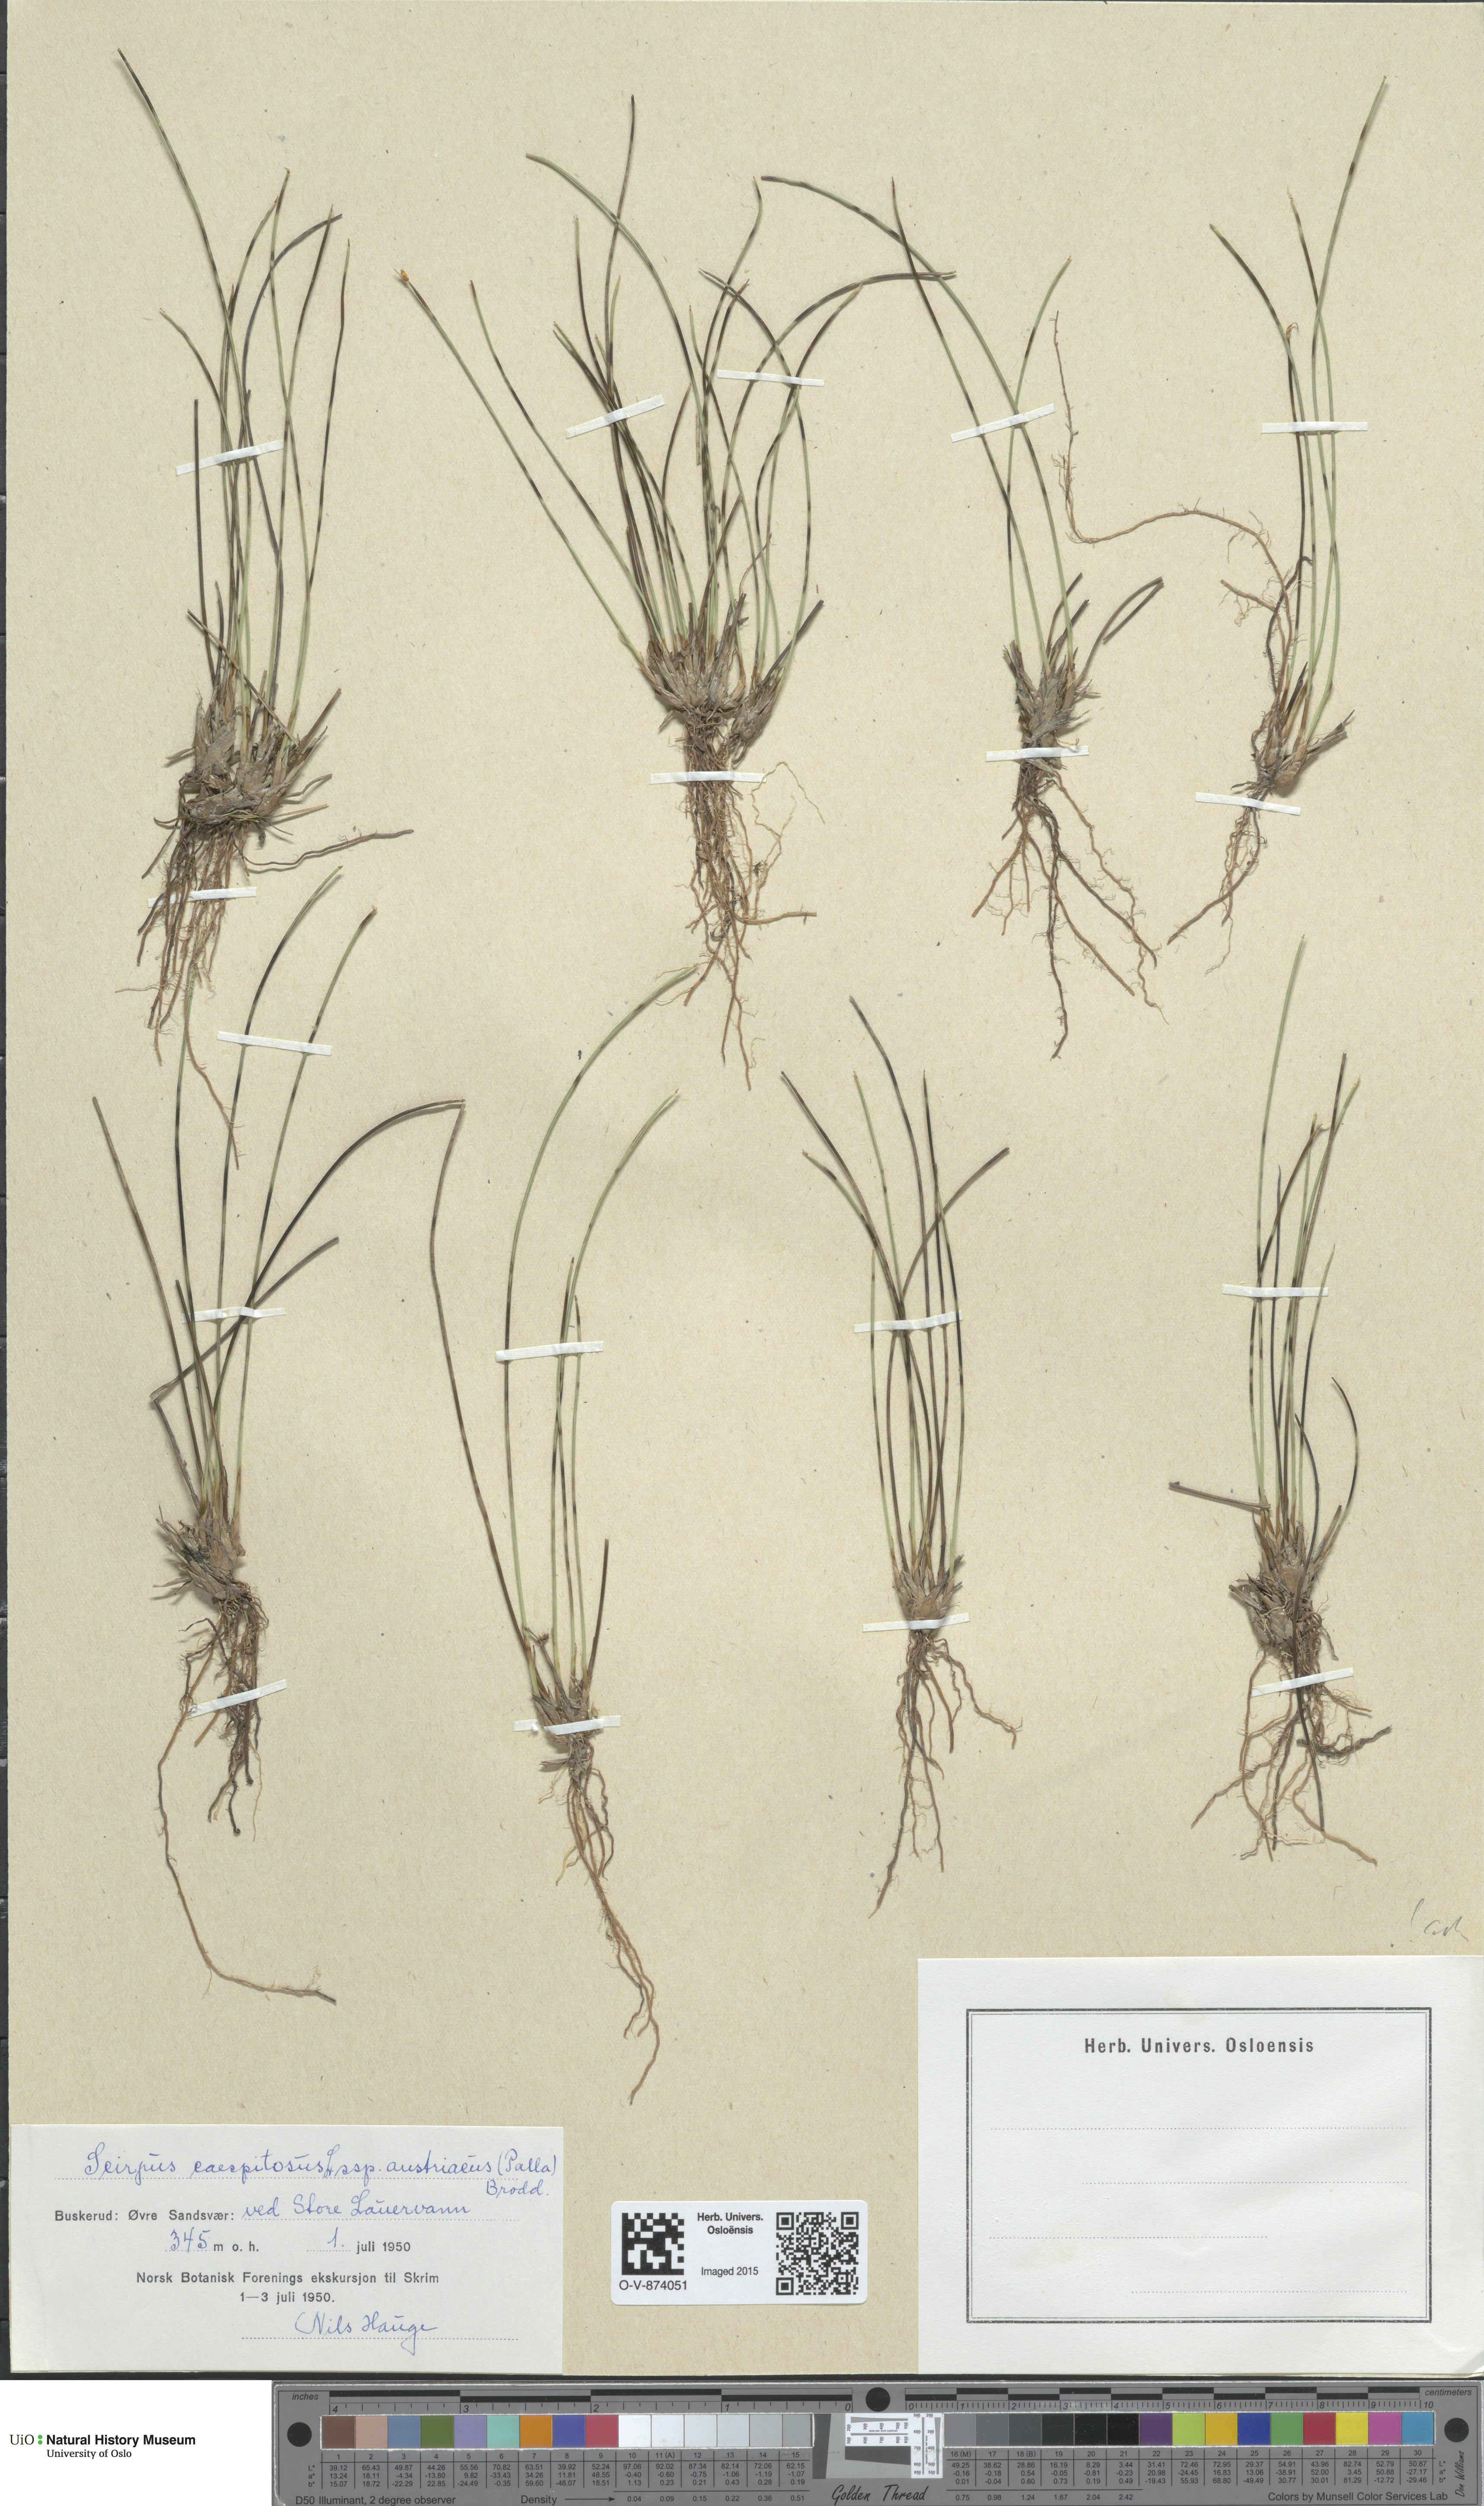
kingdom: Plantae
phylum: Tracheophyta
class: Liliopsida
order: Poales
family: Cyperaceae
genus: Trichophorum
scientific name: Trichophorum cespitosum
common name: Cespitose bulrush
